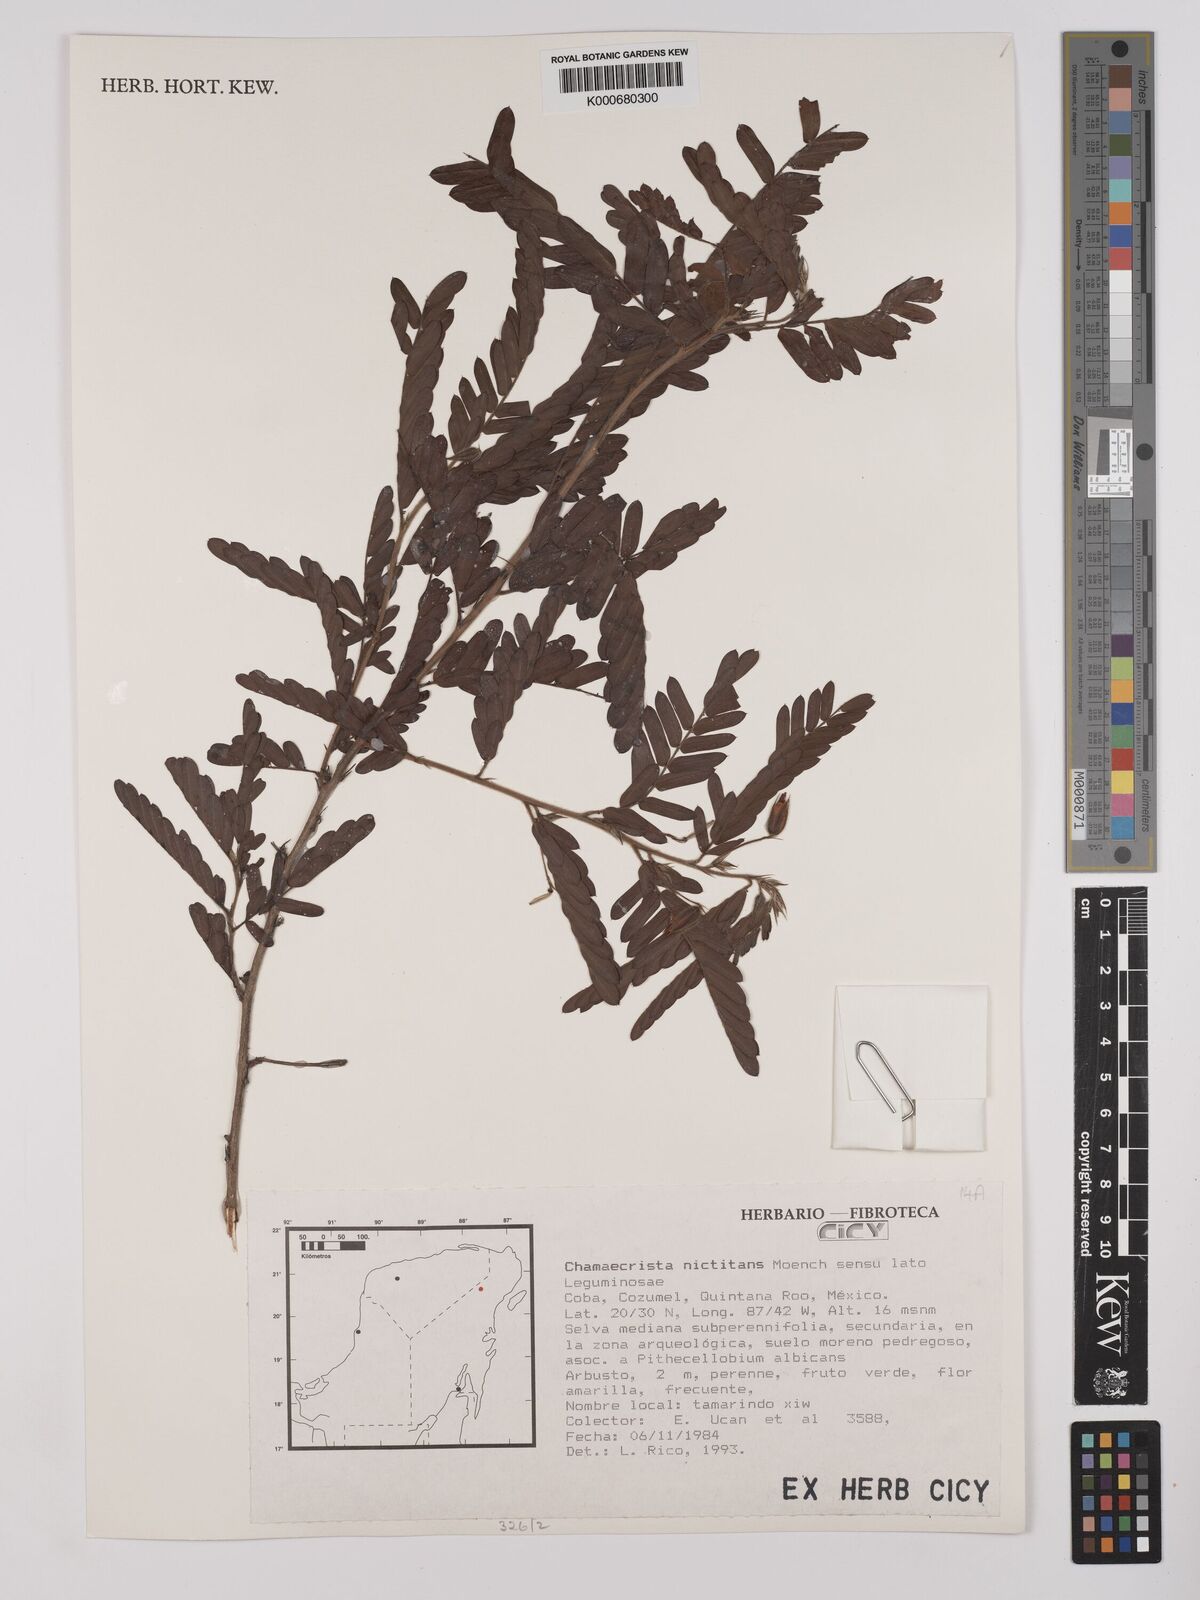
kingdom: Plantae
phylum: Tracheophyta
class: Magnoliopsida
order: Fabales
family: Fabaceae
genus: Chamaecrista
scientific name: Chamaecrista nictitans
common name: Sensitive cassia
